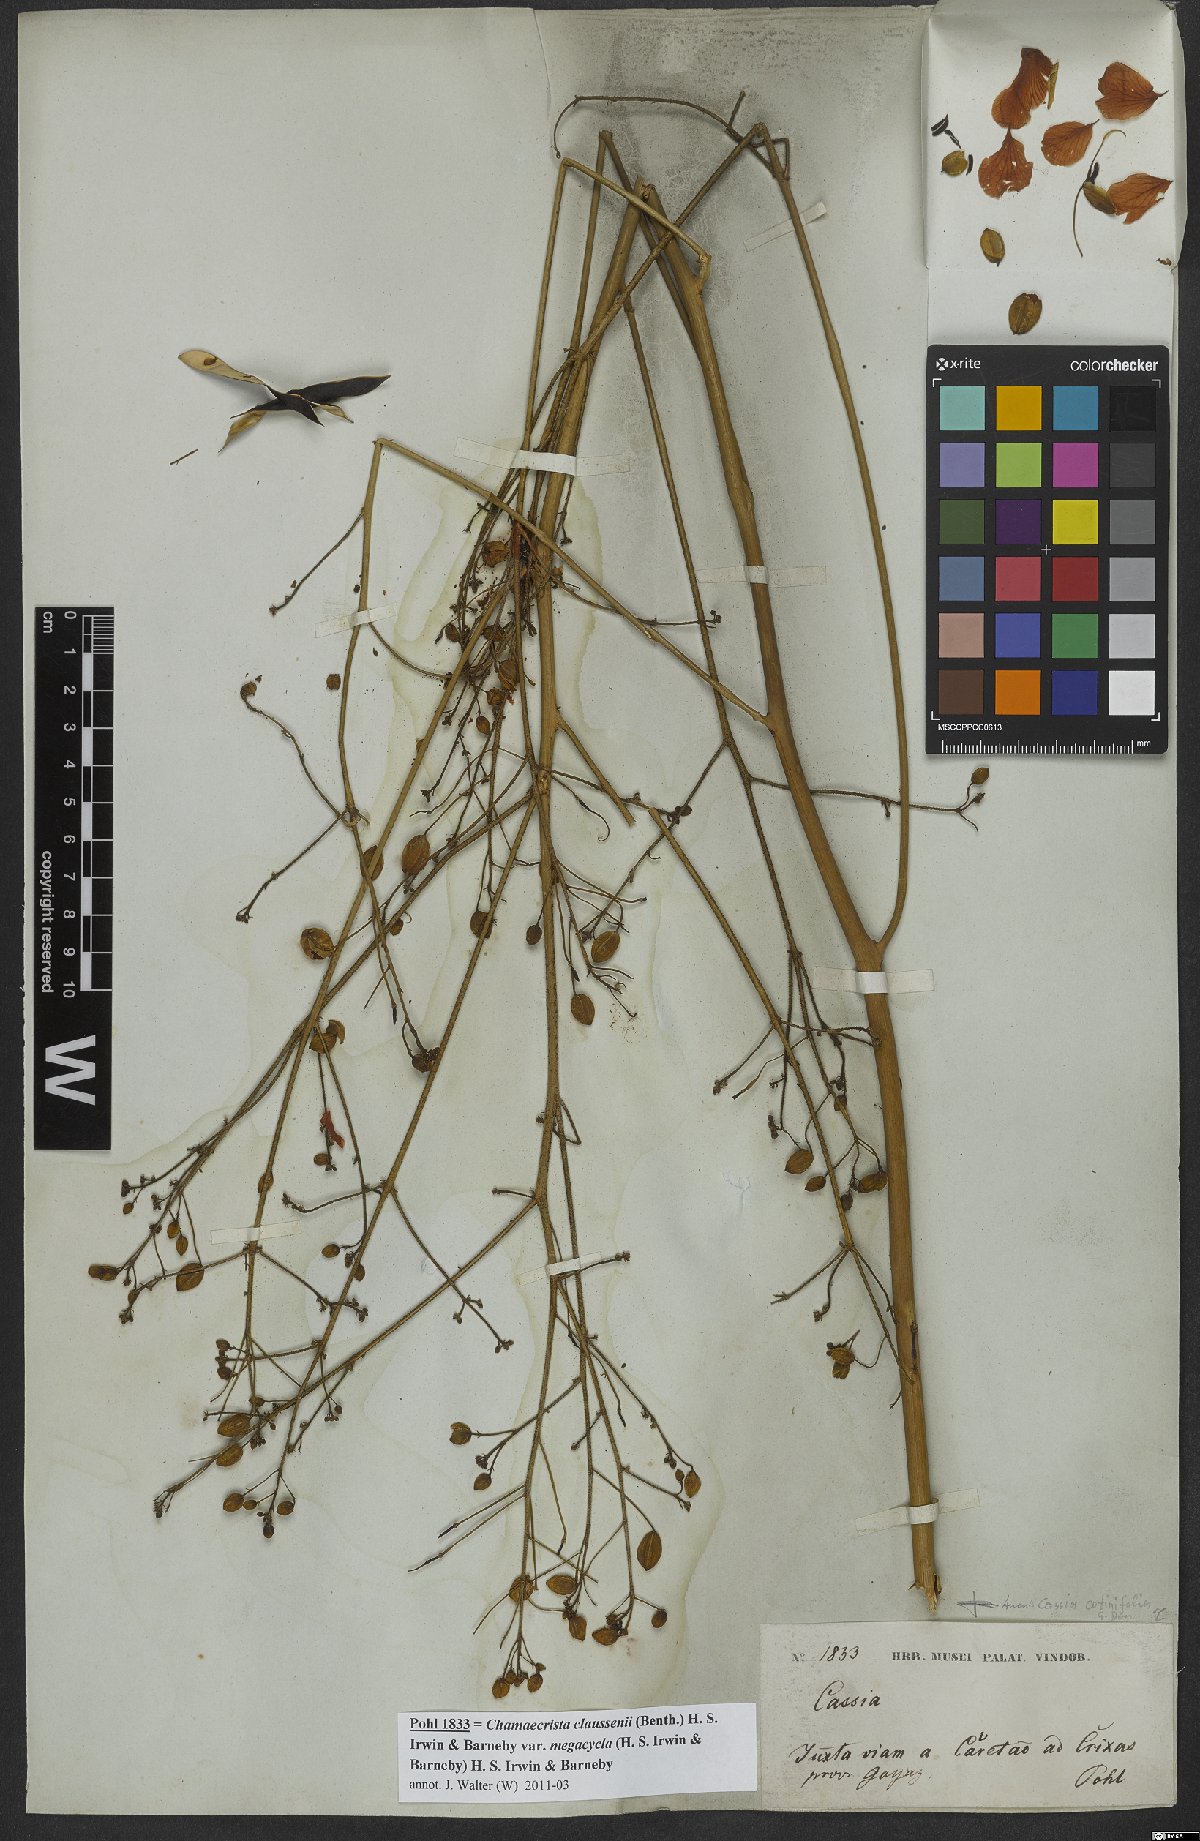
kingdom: Plantae
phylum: Tracheophyta
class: Magnoliopsida
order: Fabales
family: Fabaceae
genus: Chamaecrista
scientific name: Chamaecrista cotinifolia
